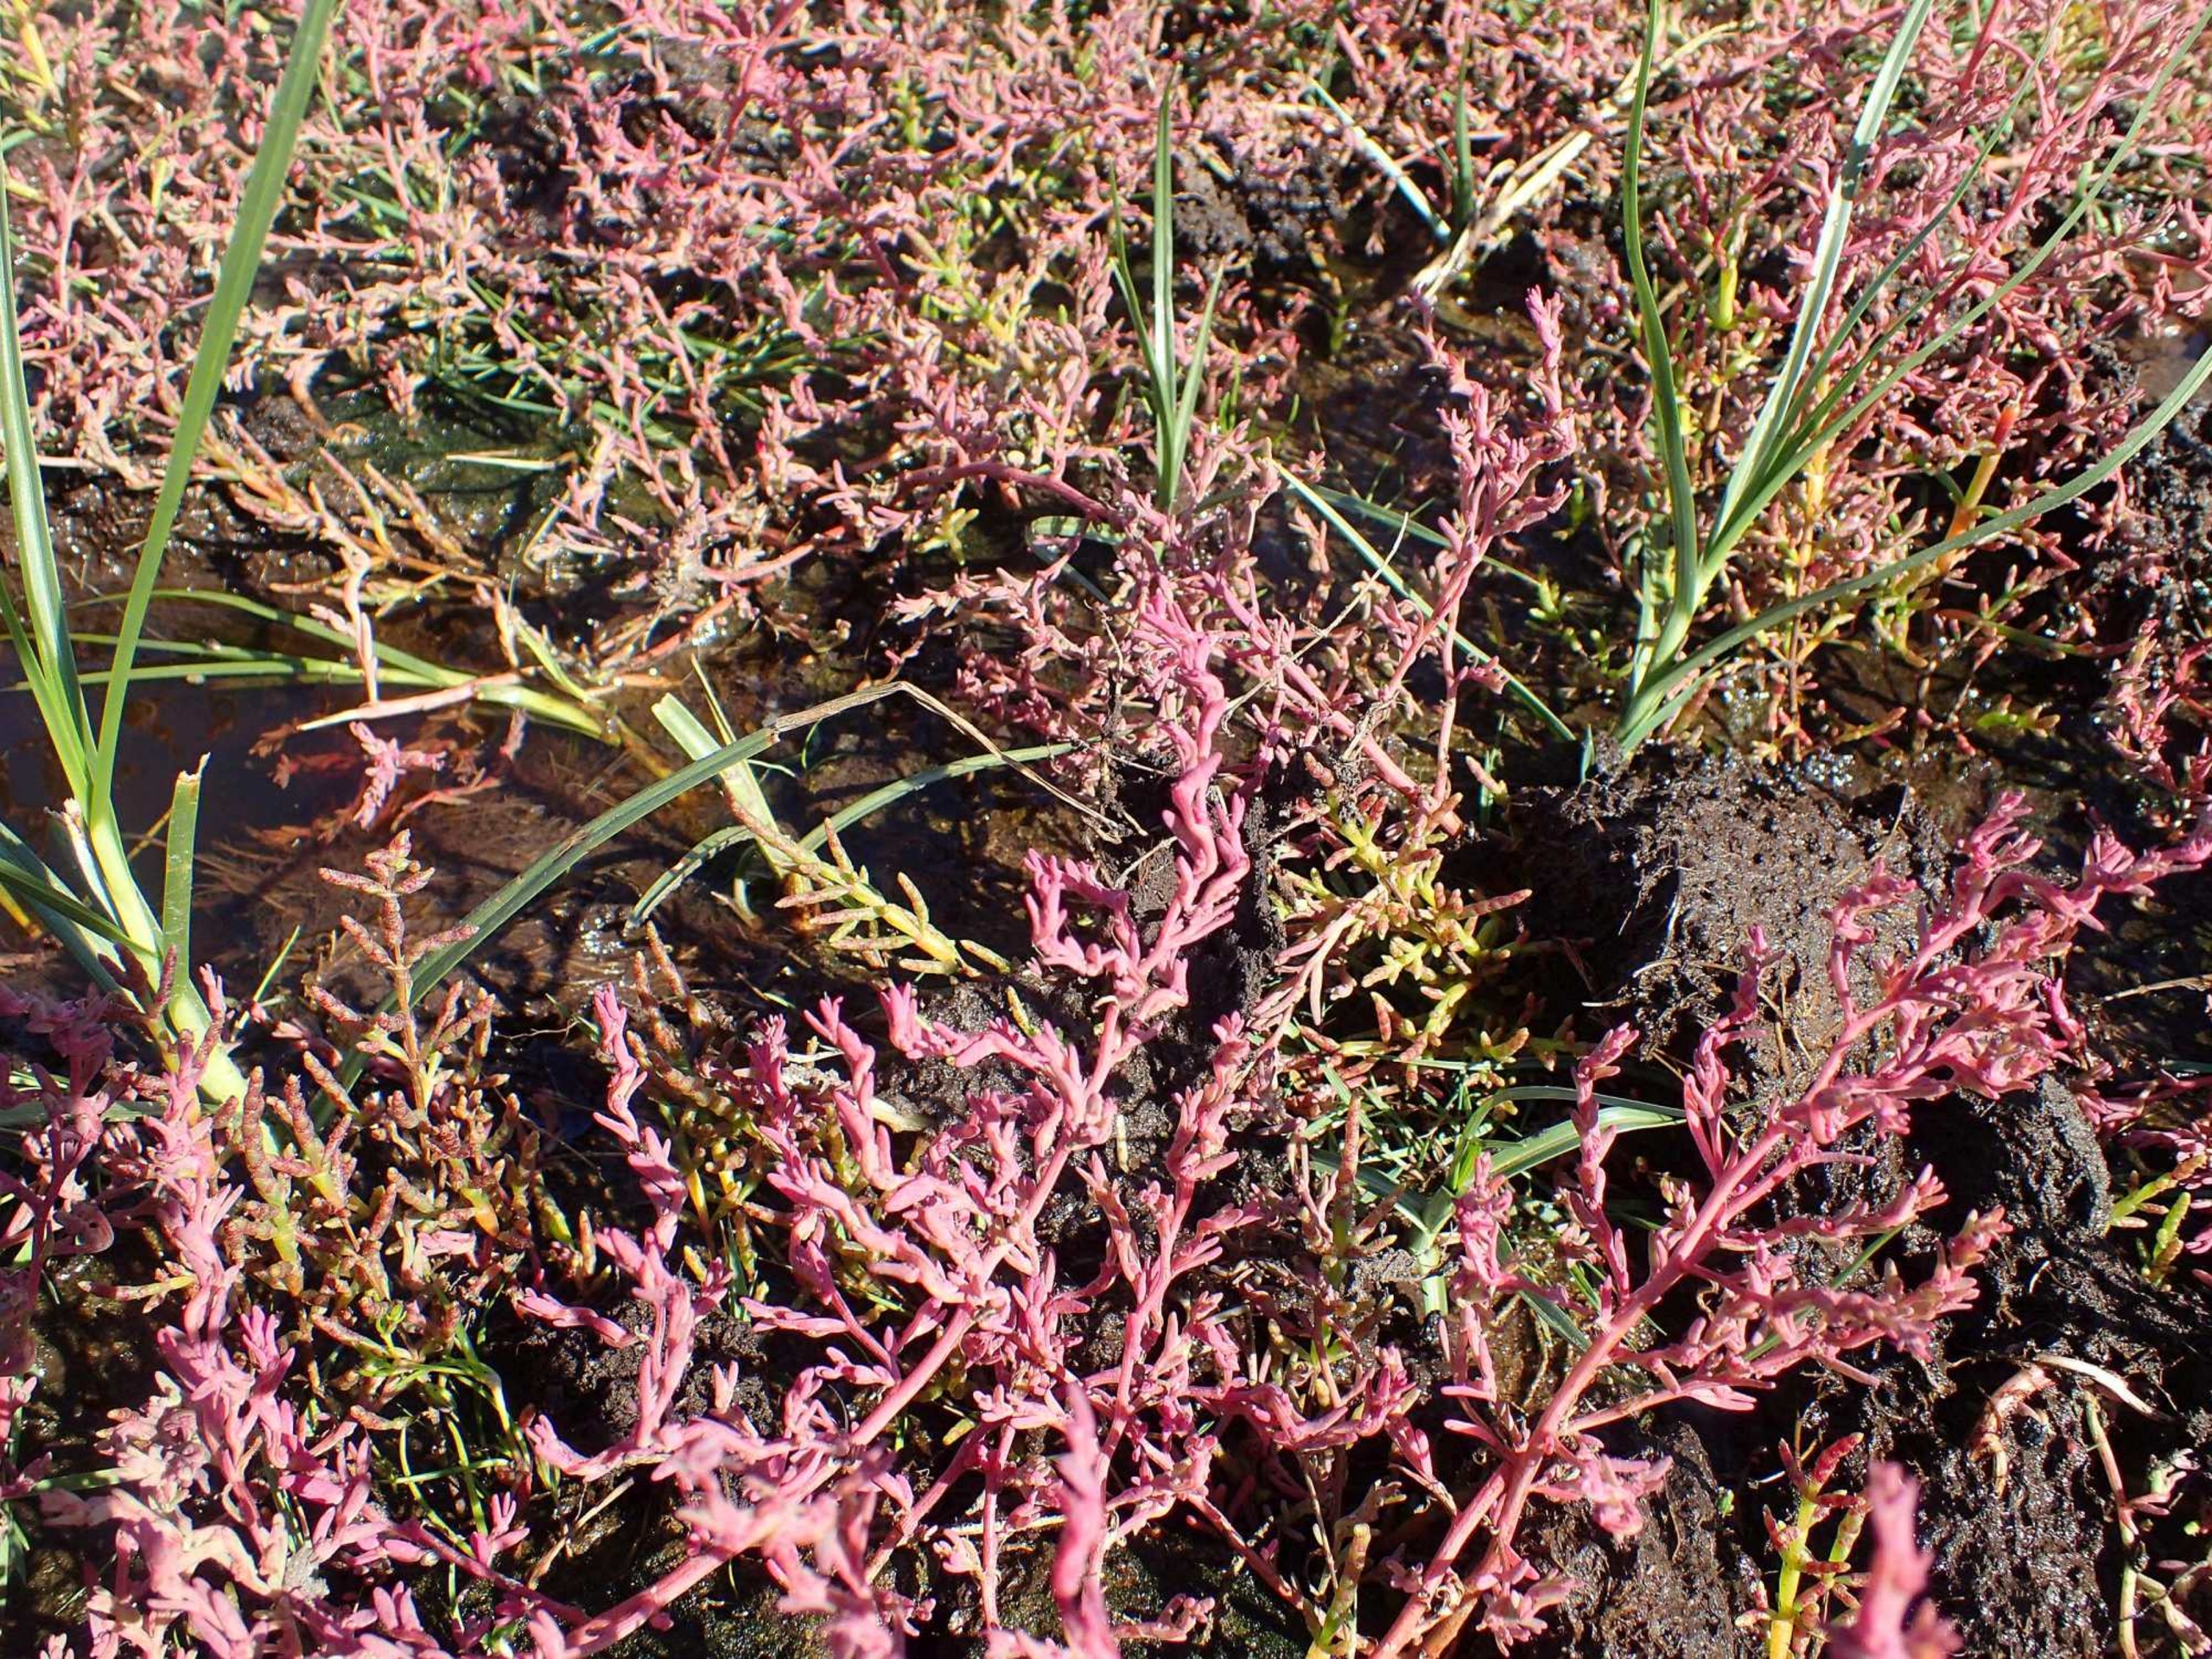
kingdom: Plantae
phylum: Tracheophyta
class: Magnoliopsida
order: Caryophyllales
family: Amaranthaceae
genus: Spirobassia
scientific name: Spirobassia hirsuta
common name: Tangurt
